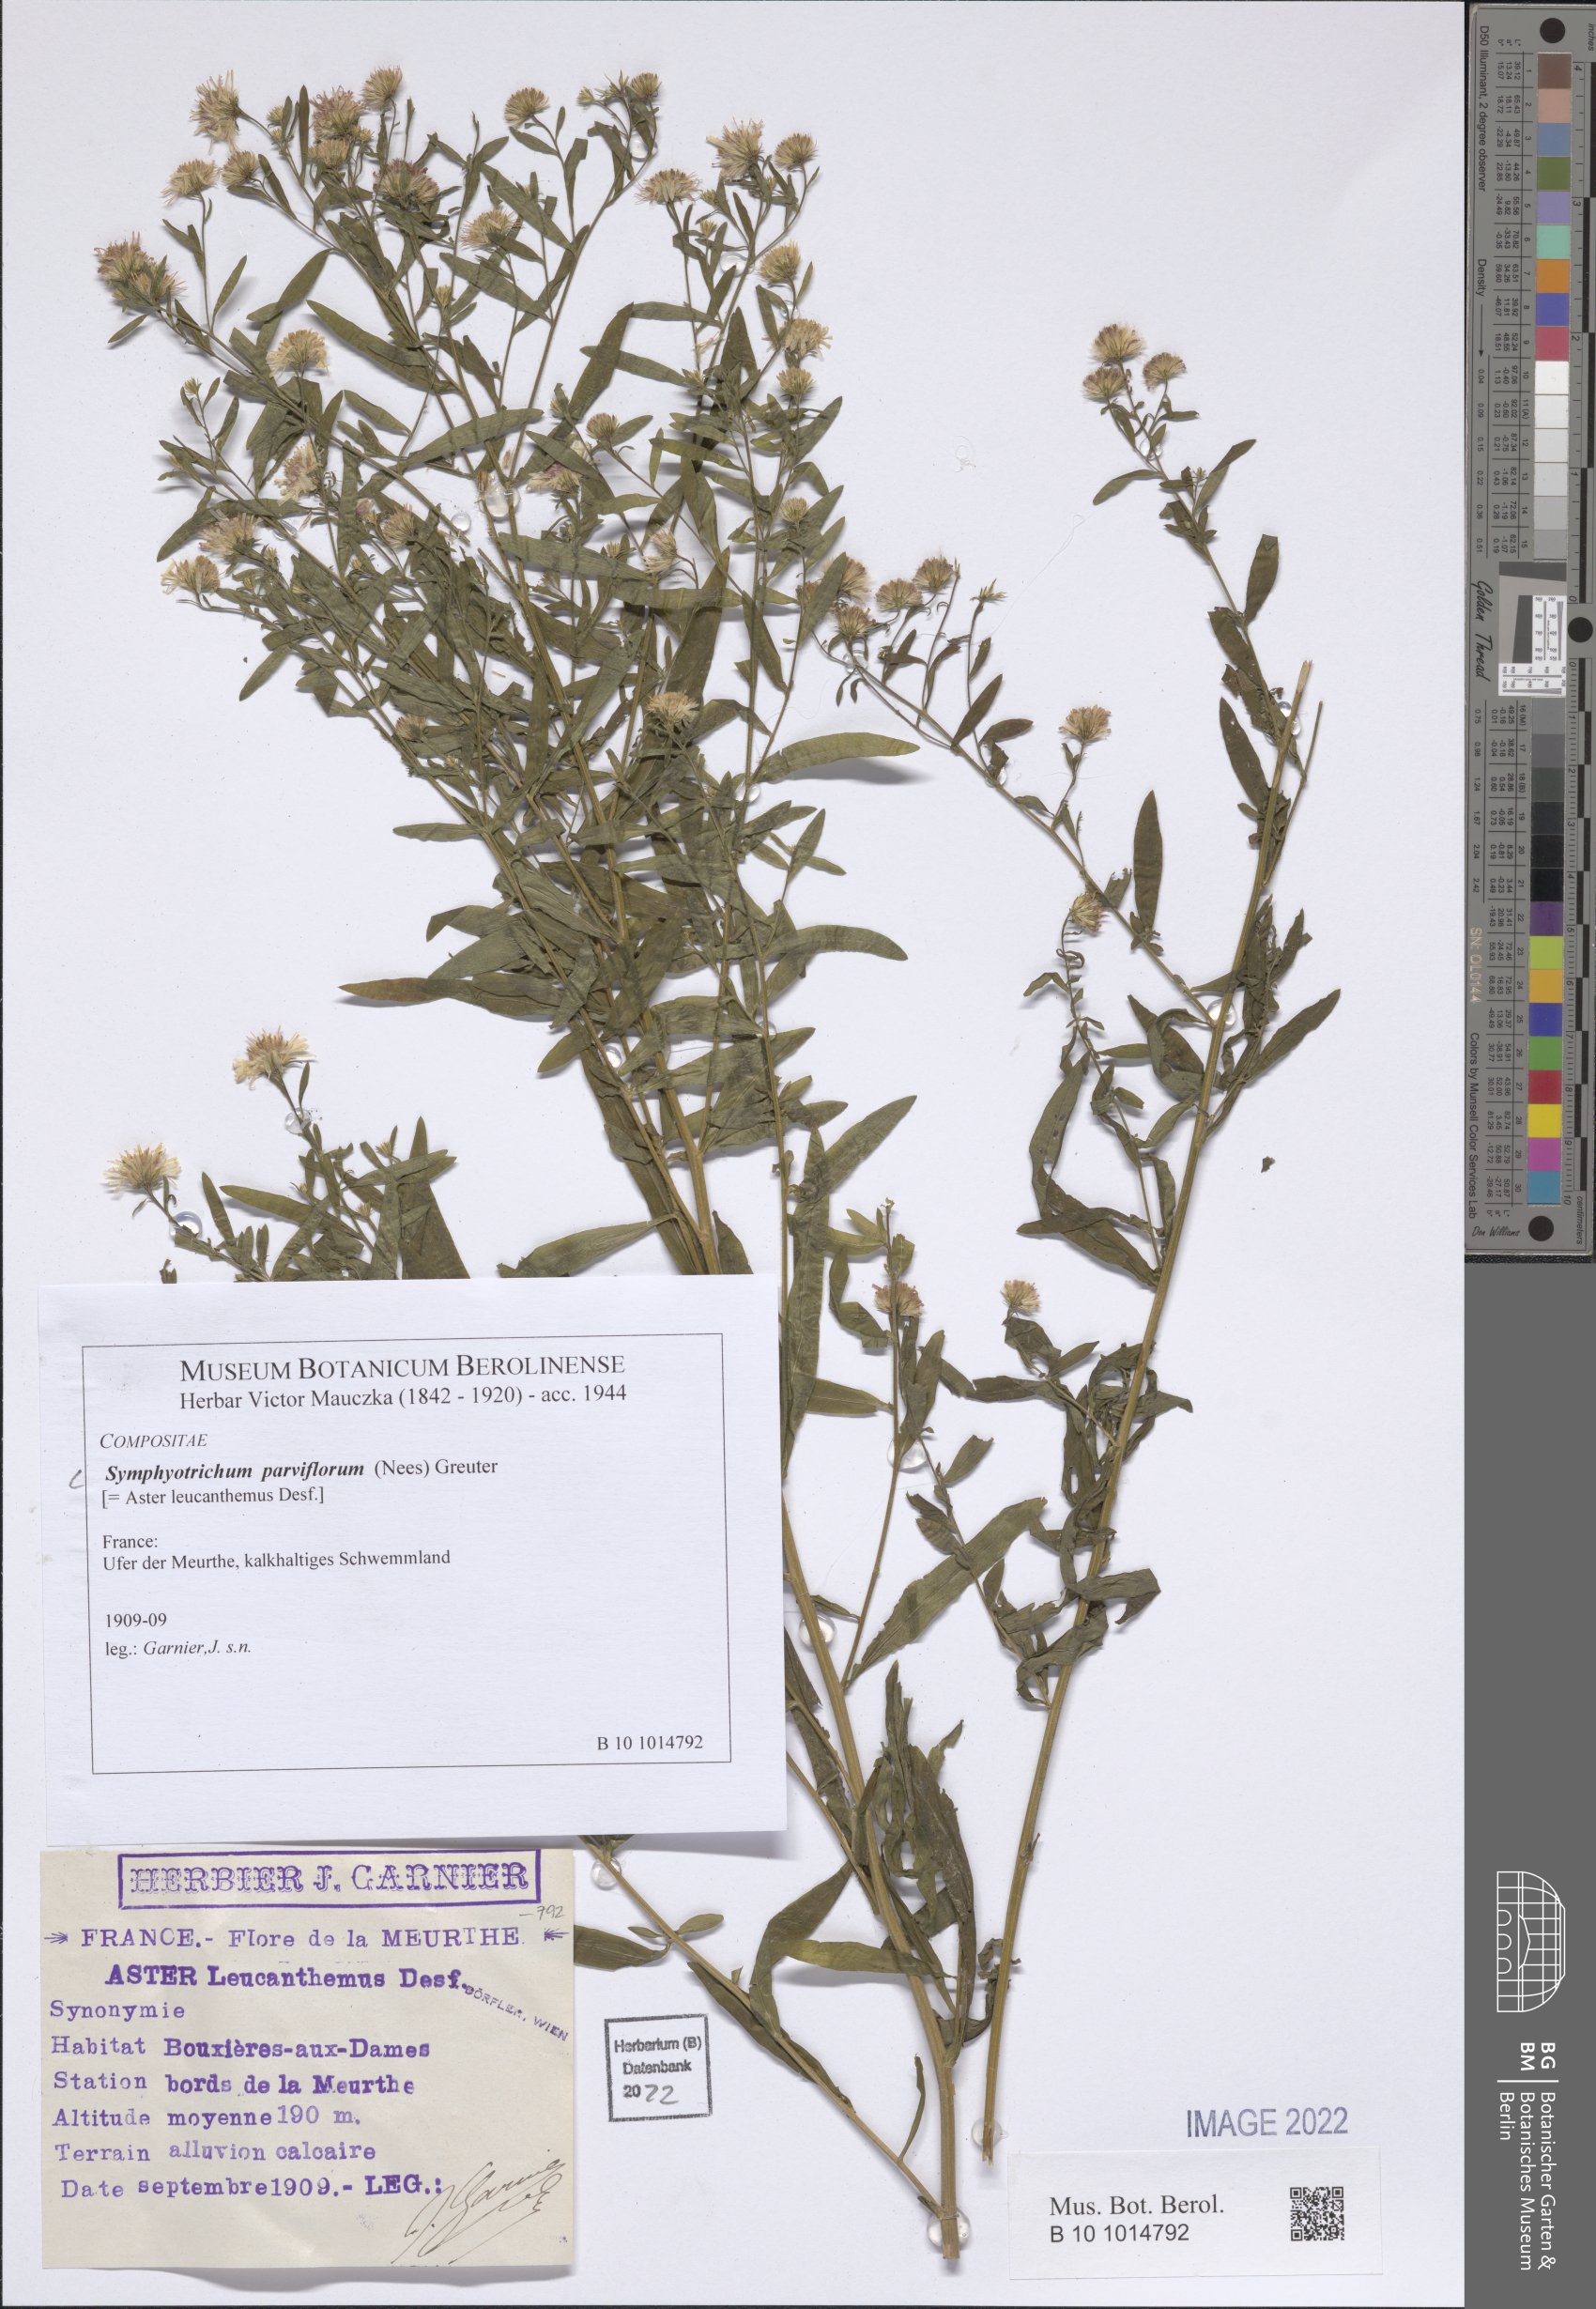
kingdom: Plantae
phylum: Tracheophyta
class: Magnoliopsida
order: Asterales
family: Asteraceae
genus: Symphyotrichum
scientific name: Symphyotrichum expansum
